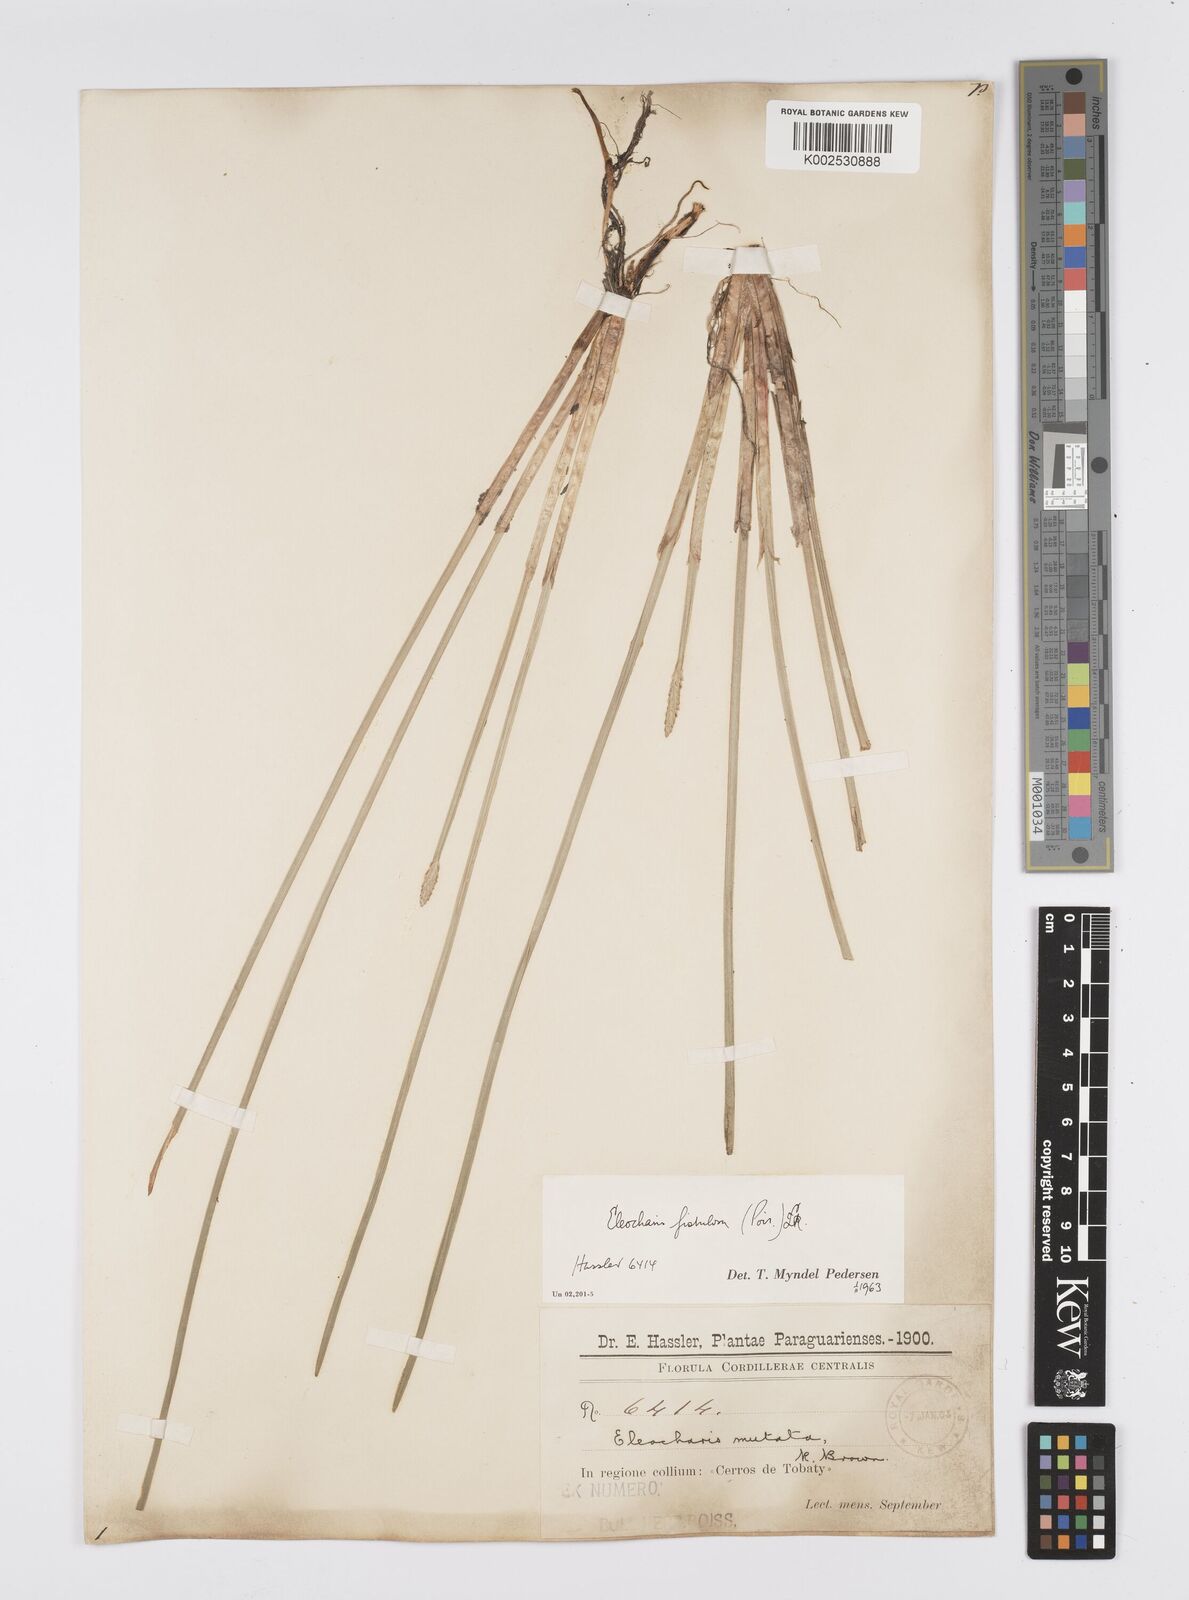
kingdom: Plantae
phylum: Tracheophyta
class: Liliopsida
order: Poales
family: Cyperaceae
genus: Eleocharis
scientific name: Eleocharis acutangula
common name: Acute spikerush
